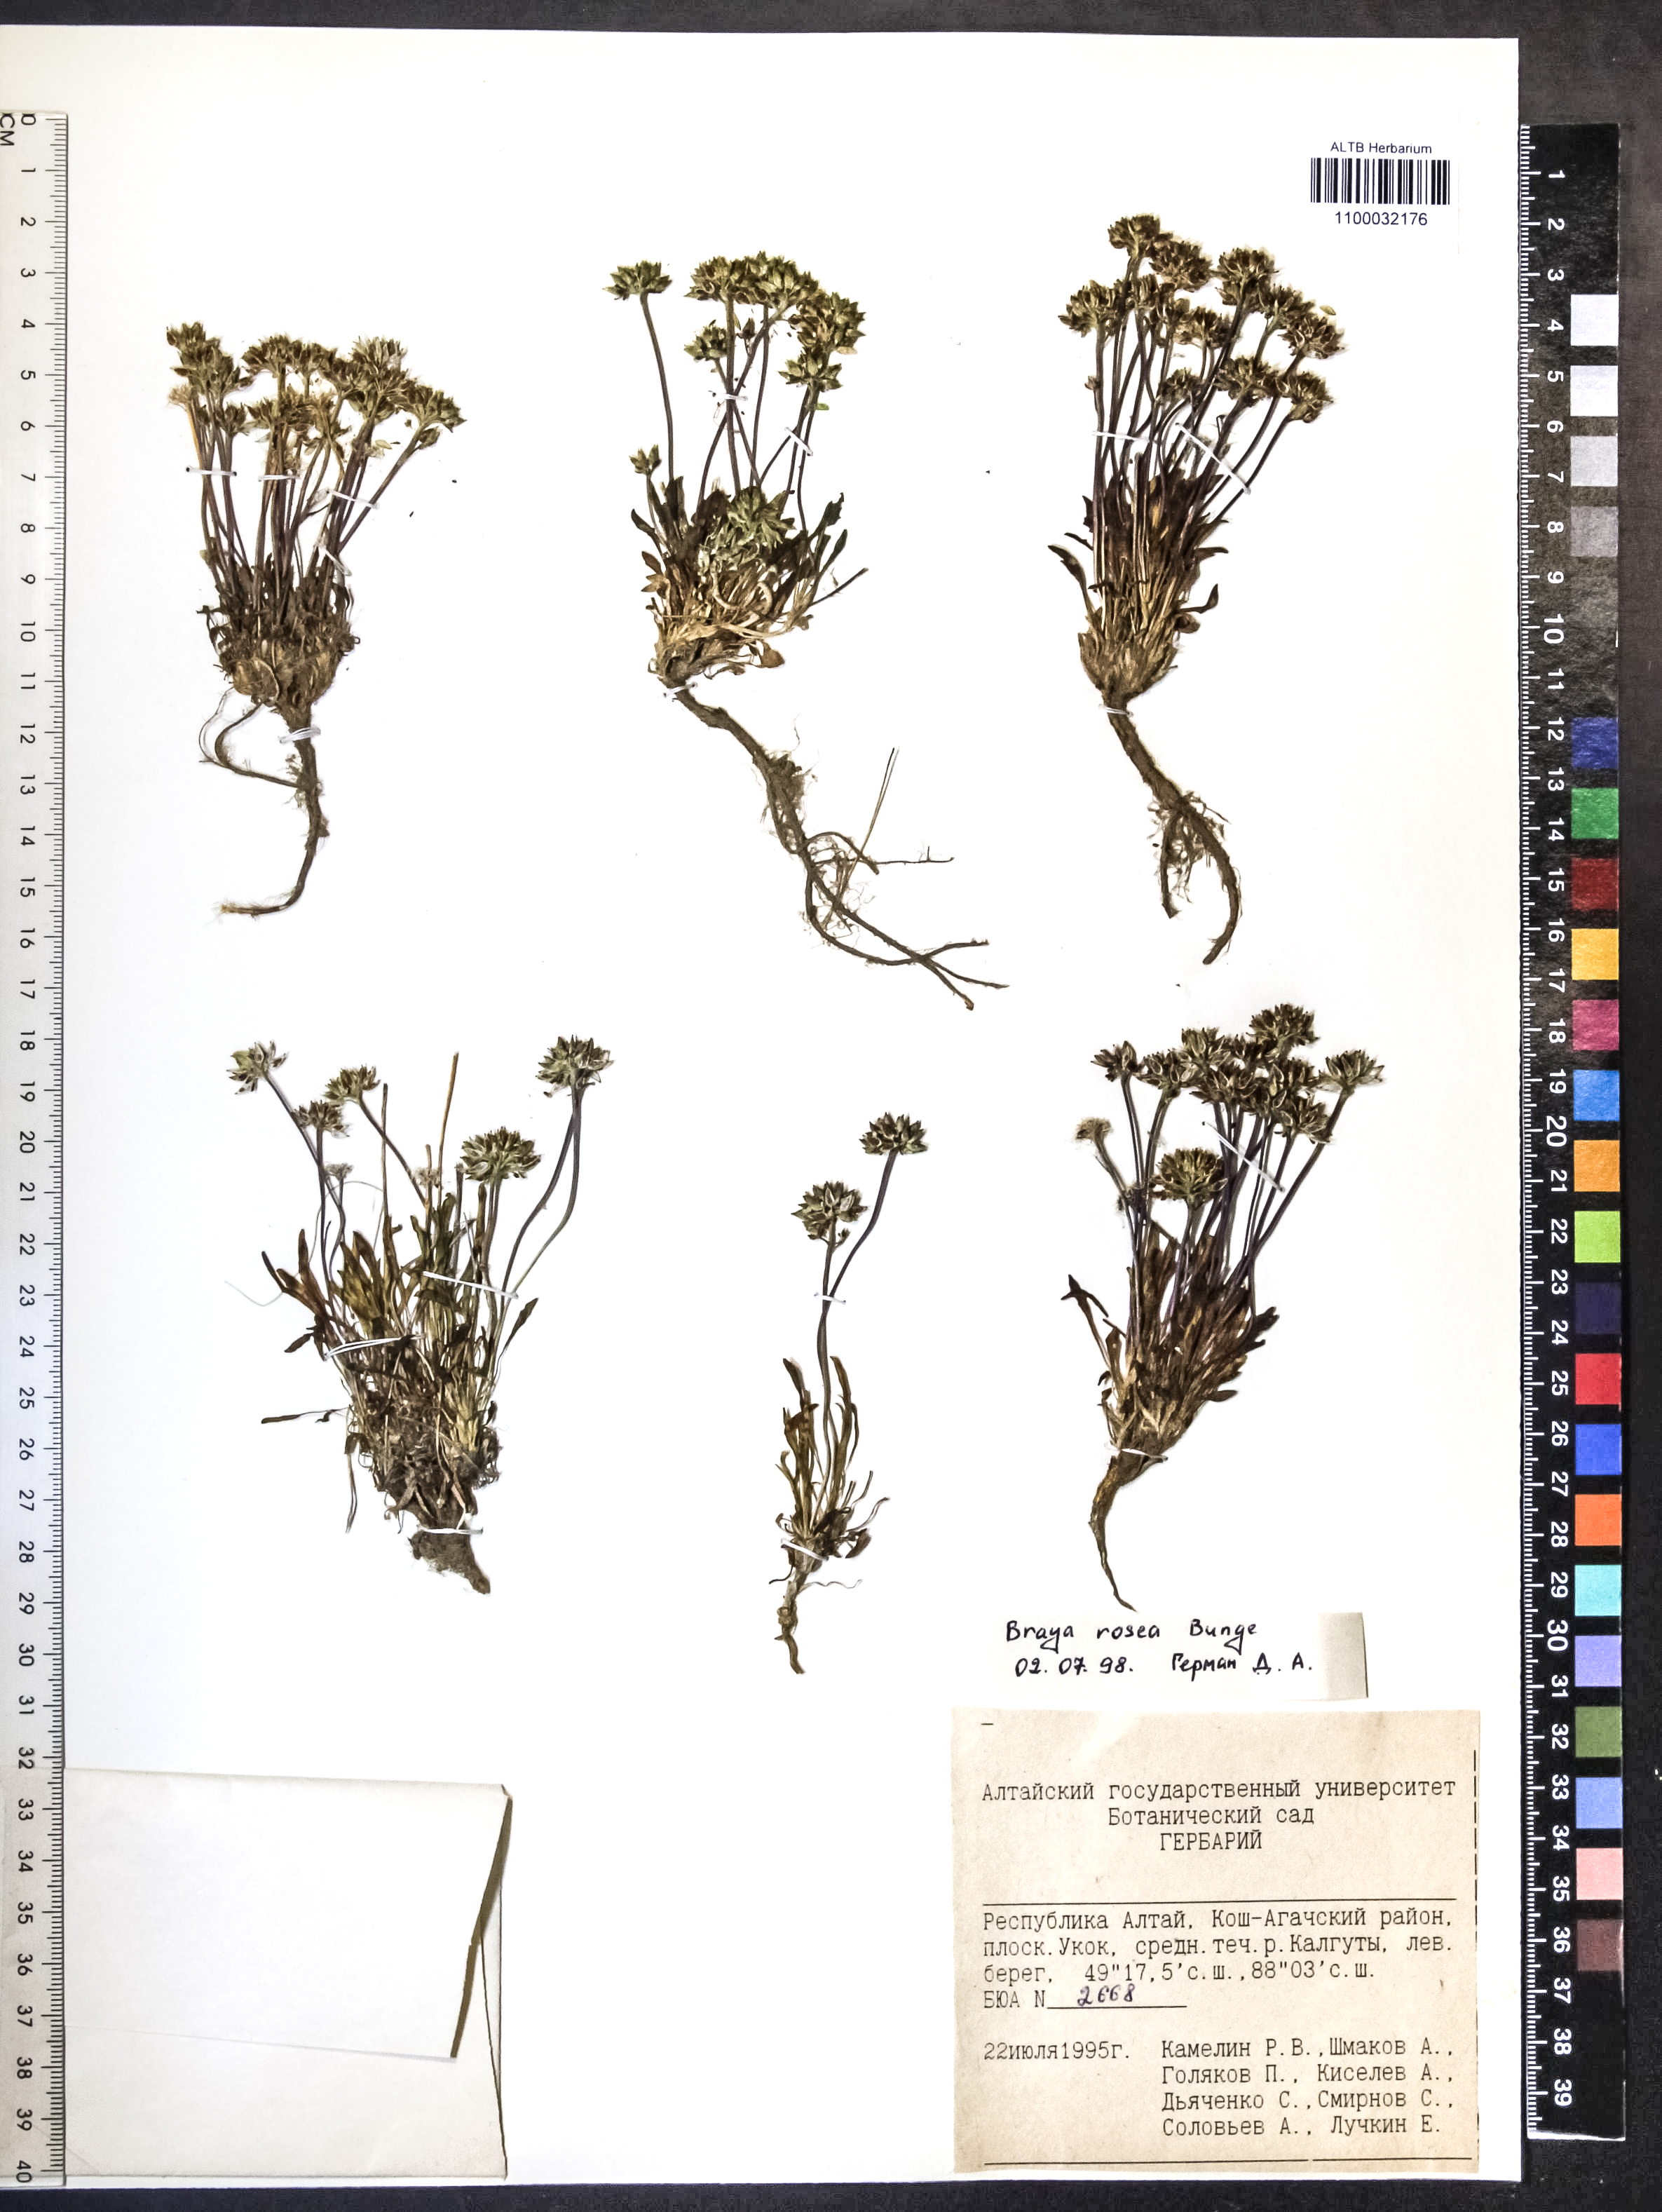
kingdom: Plantae
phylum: Tracheophyta
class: Magnoliopsida
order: Brassicales
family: Brassicaceae
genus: Braya
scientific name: Braya rosea
